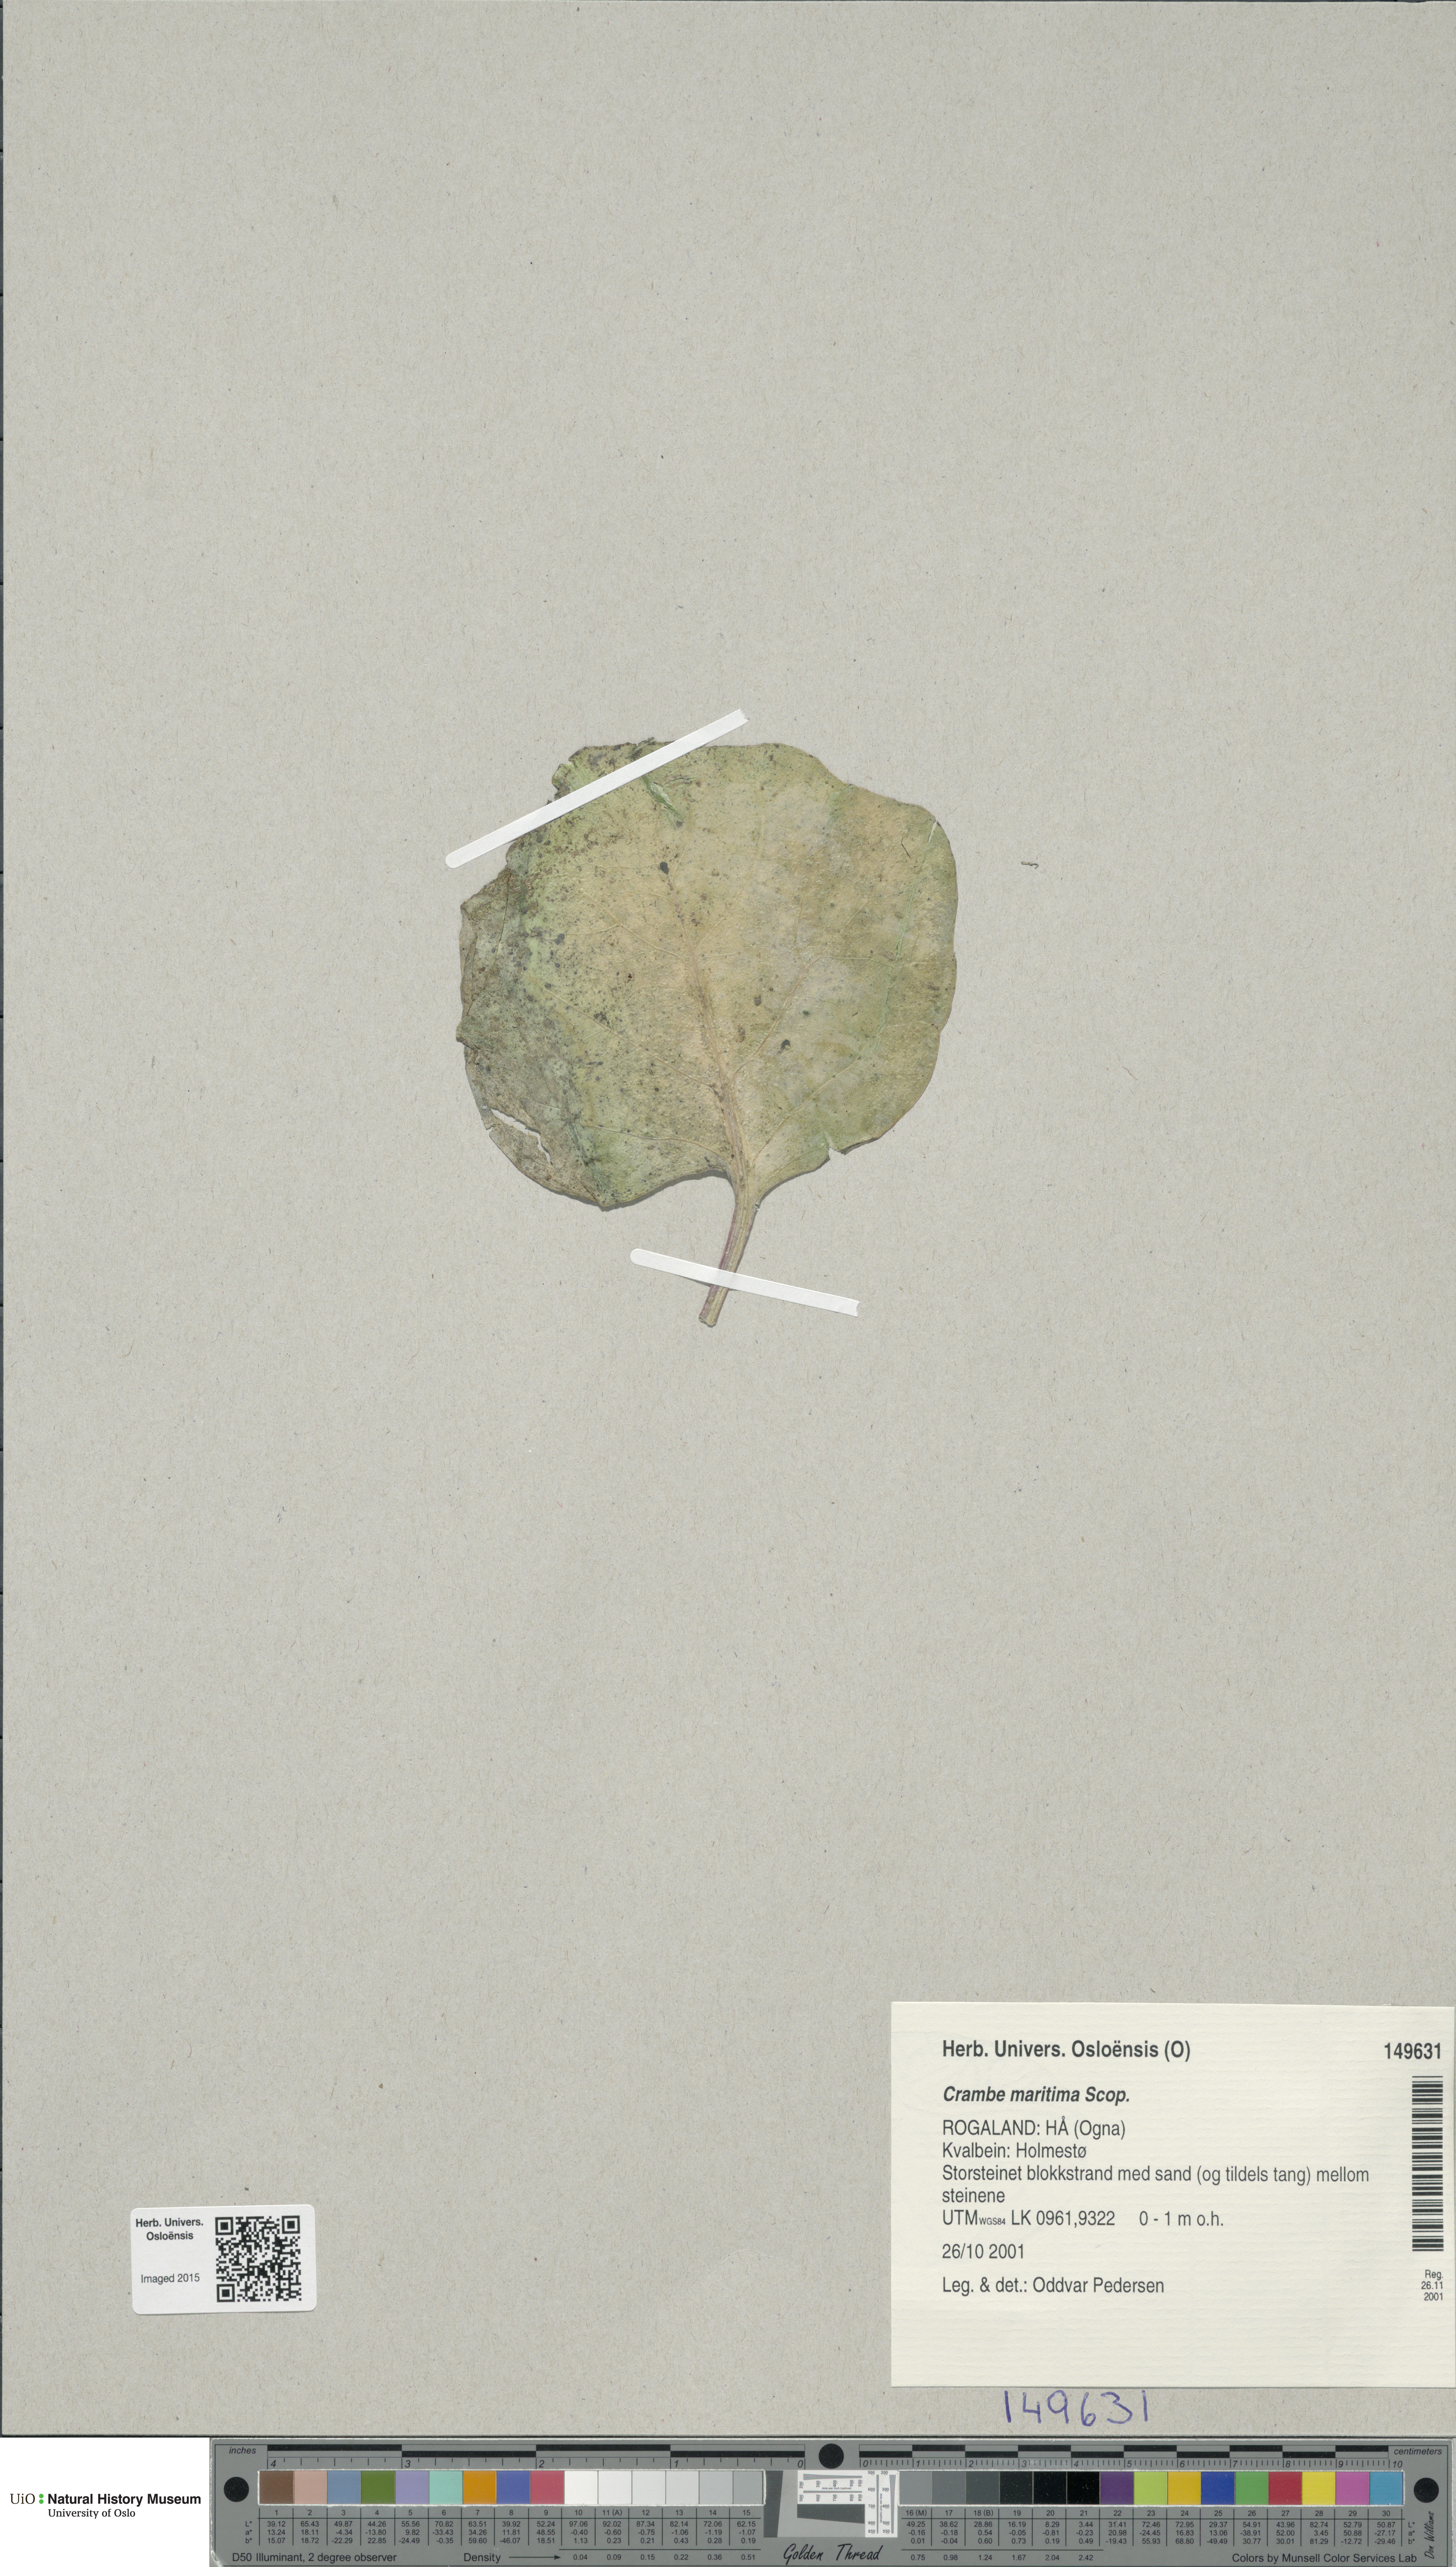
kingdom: Plantae
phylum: Tracheophyta
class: Magnoliopsida
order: Brassicales
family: Brassicaceae
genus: Crambe
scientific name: Crambe maritima
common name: Sea-kale
